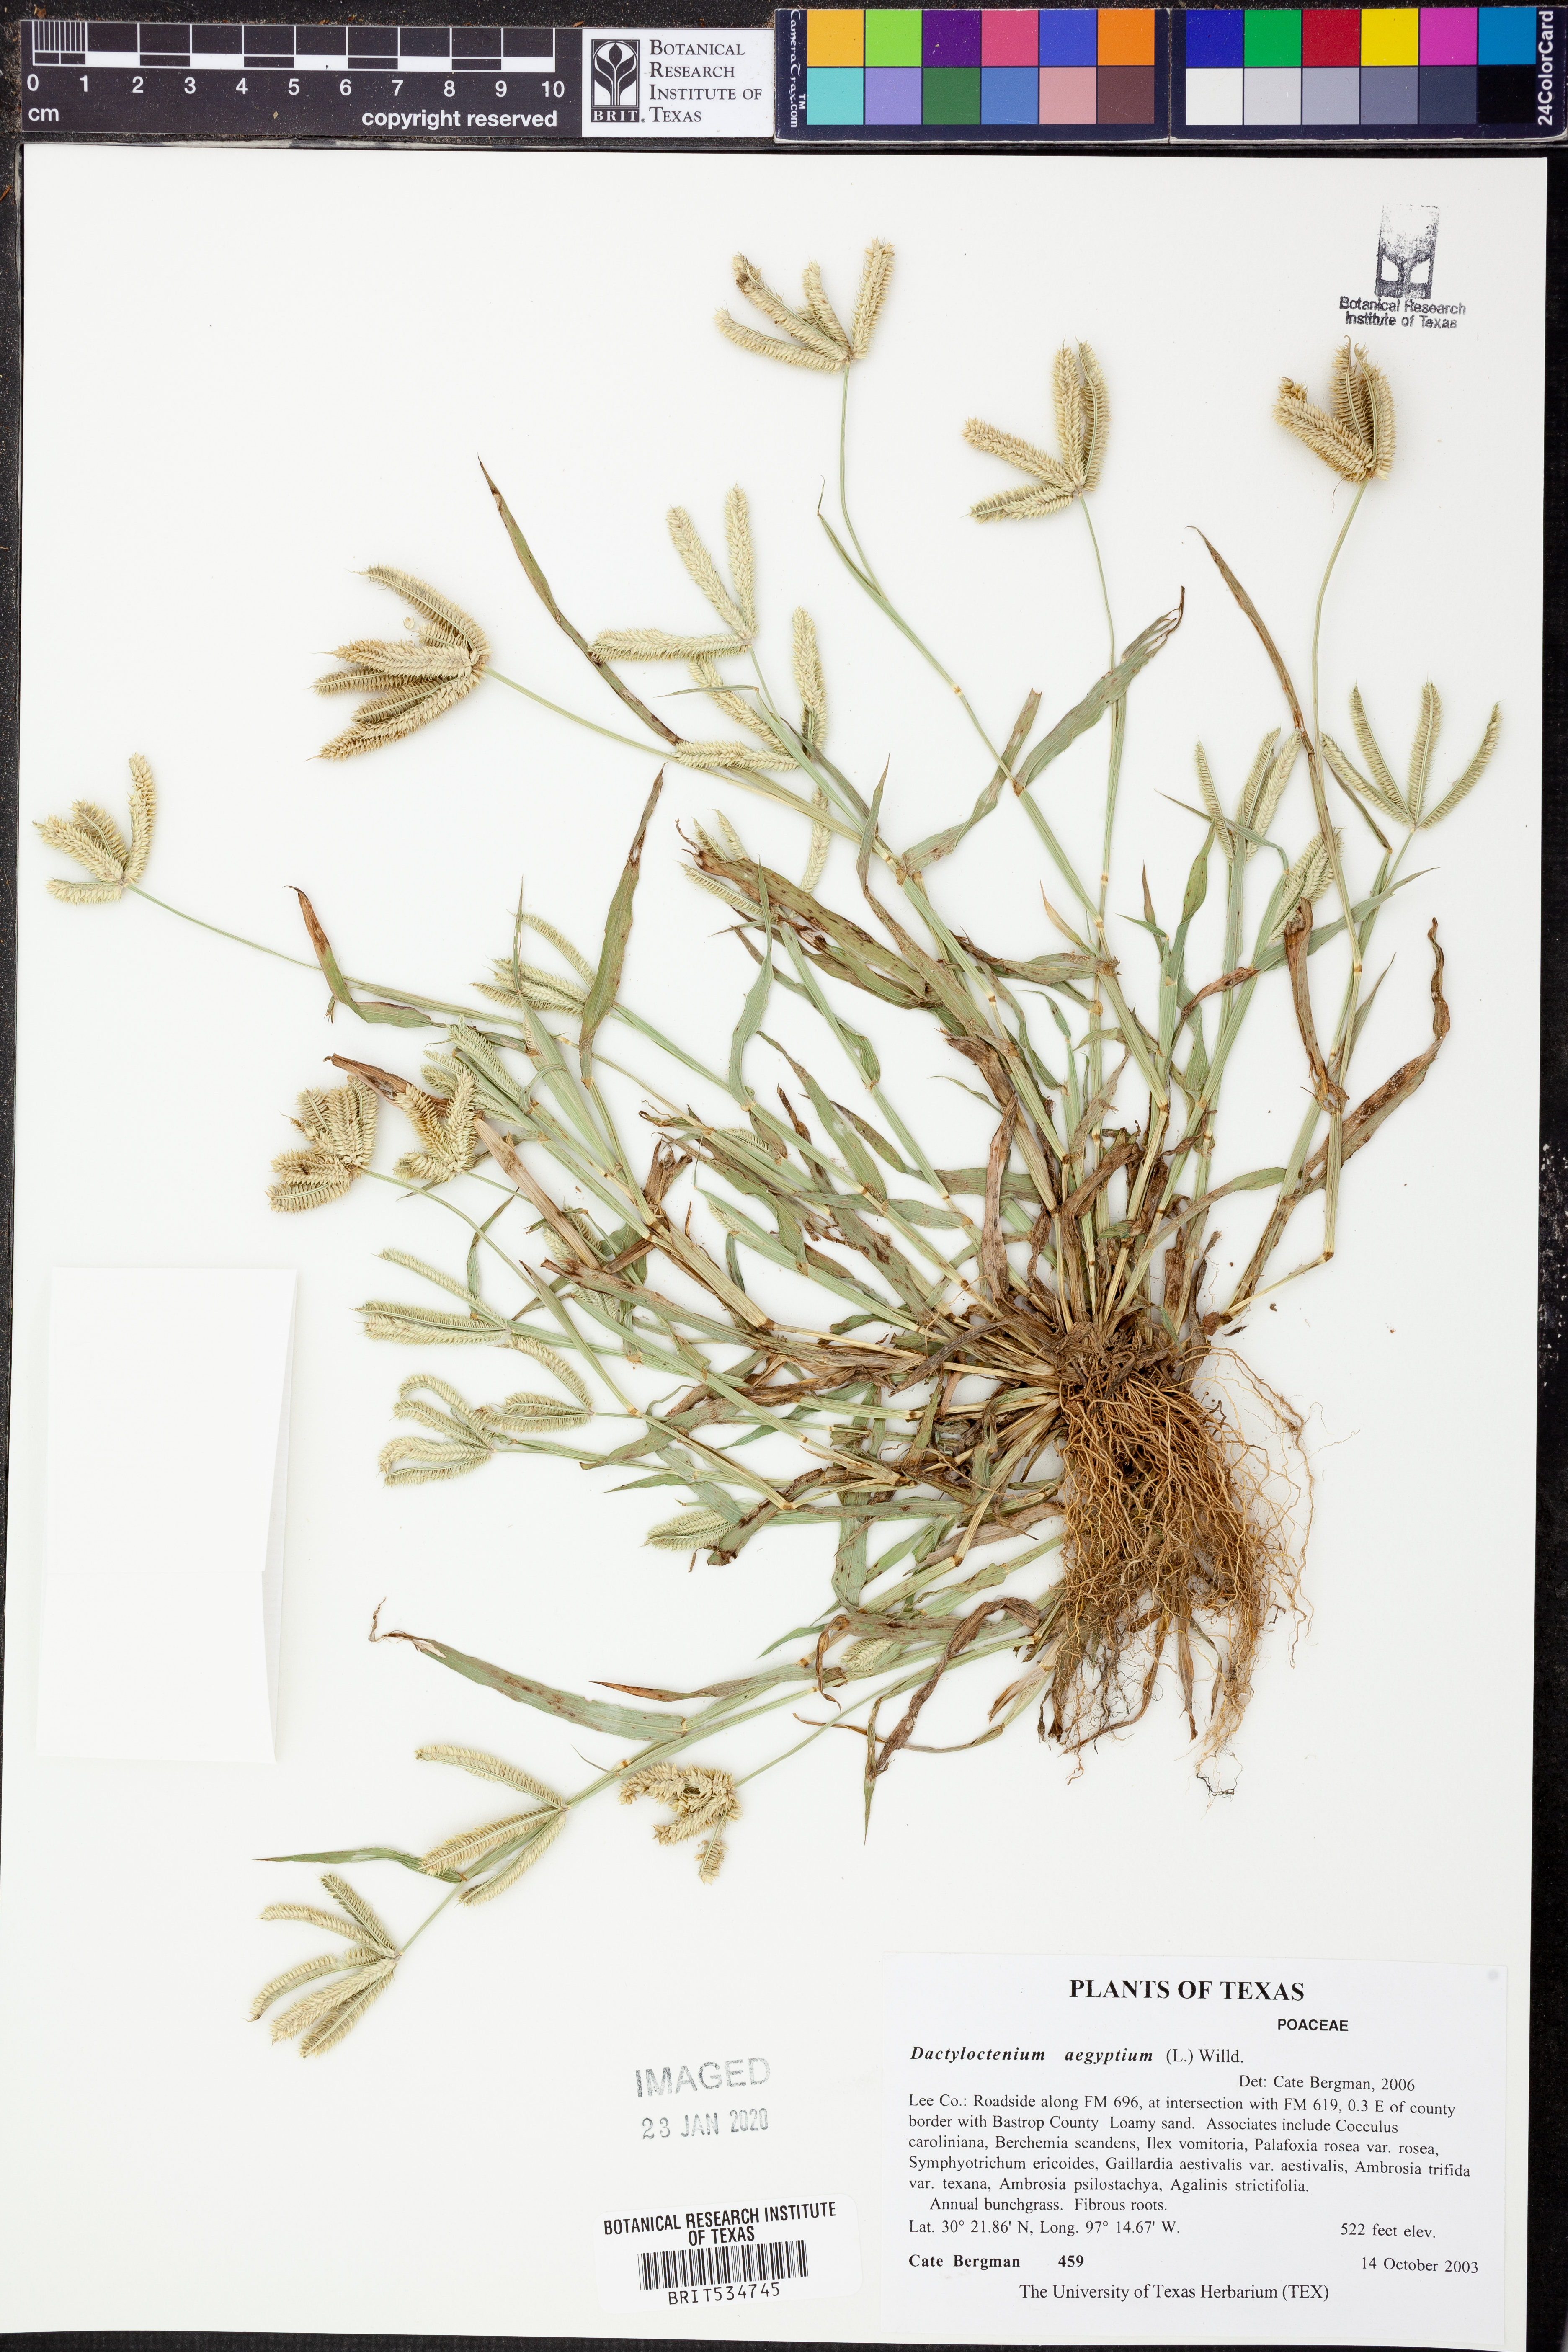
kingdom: Plantae
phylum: Tracheophyta
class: Liliopsida
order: Poales
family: Poaceae
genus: Dactyloctenium
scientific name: Dactyloctenium aegyptium
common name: Egyptian grass
